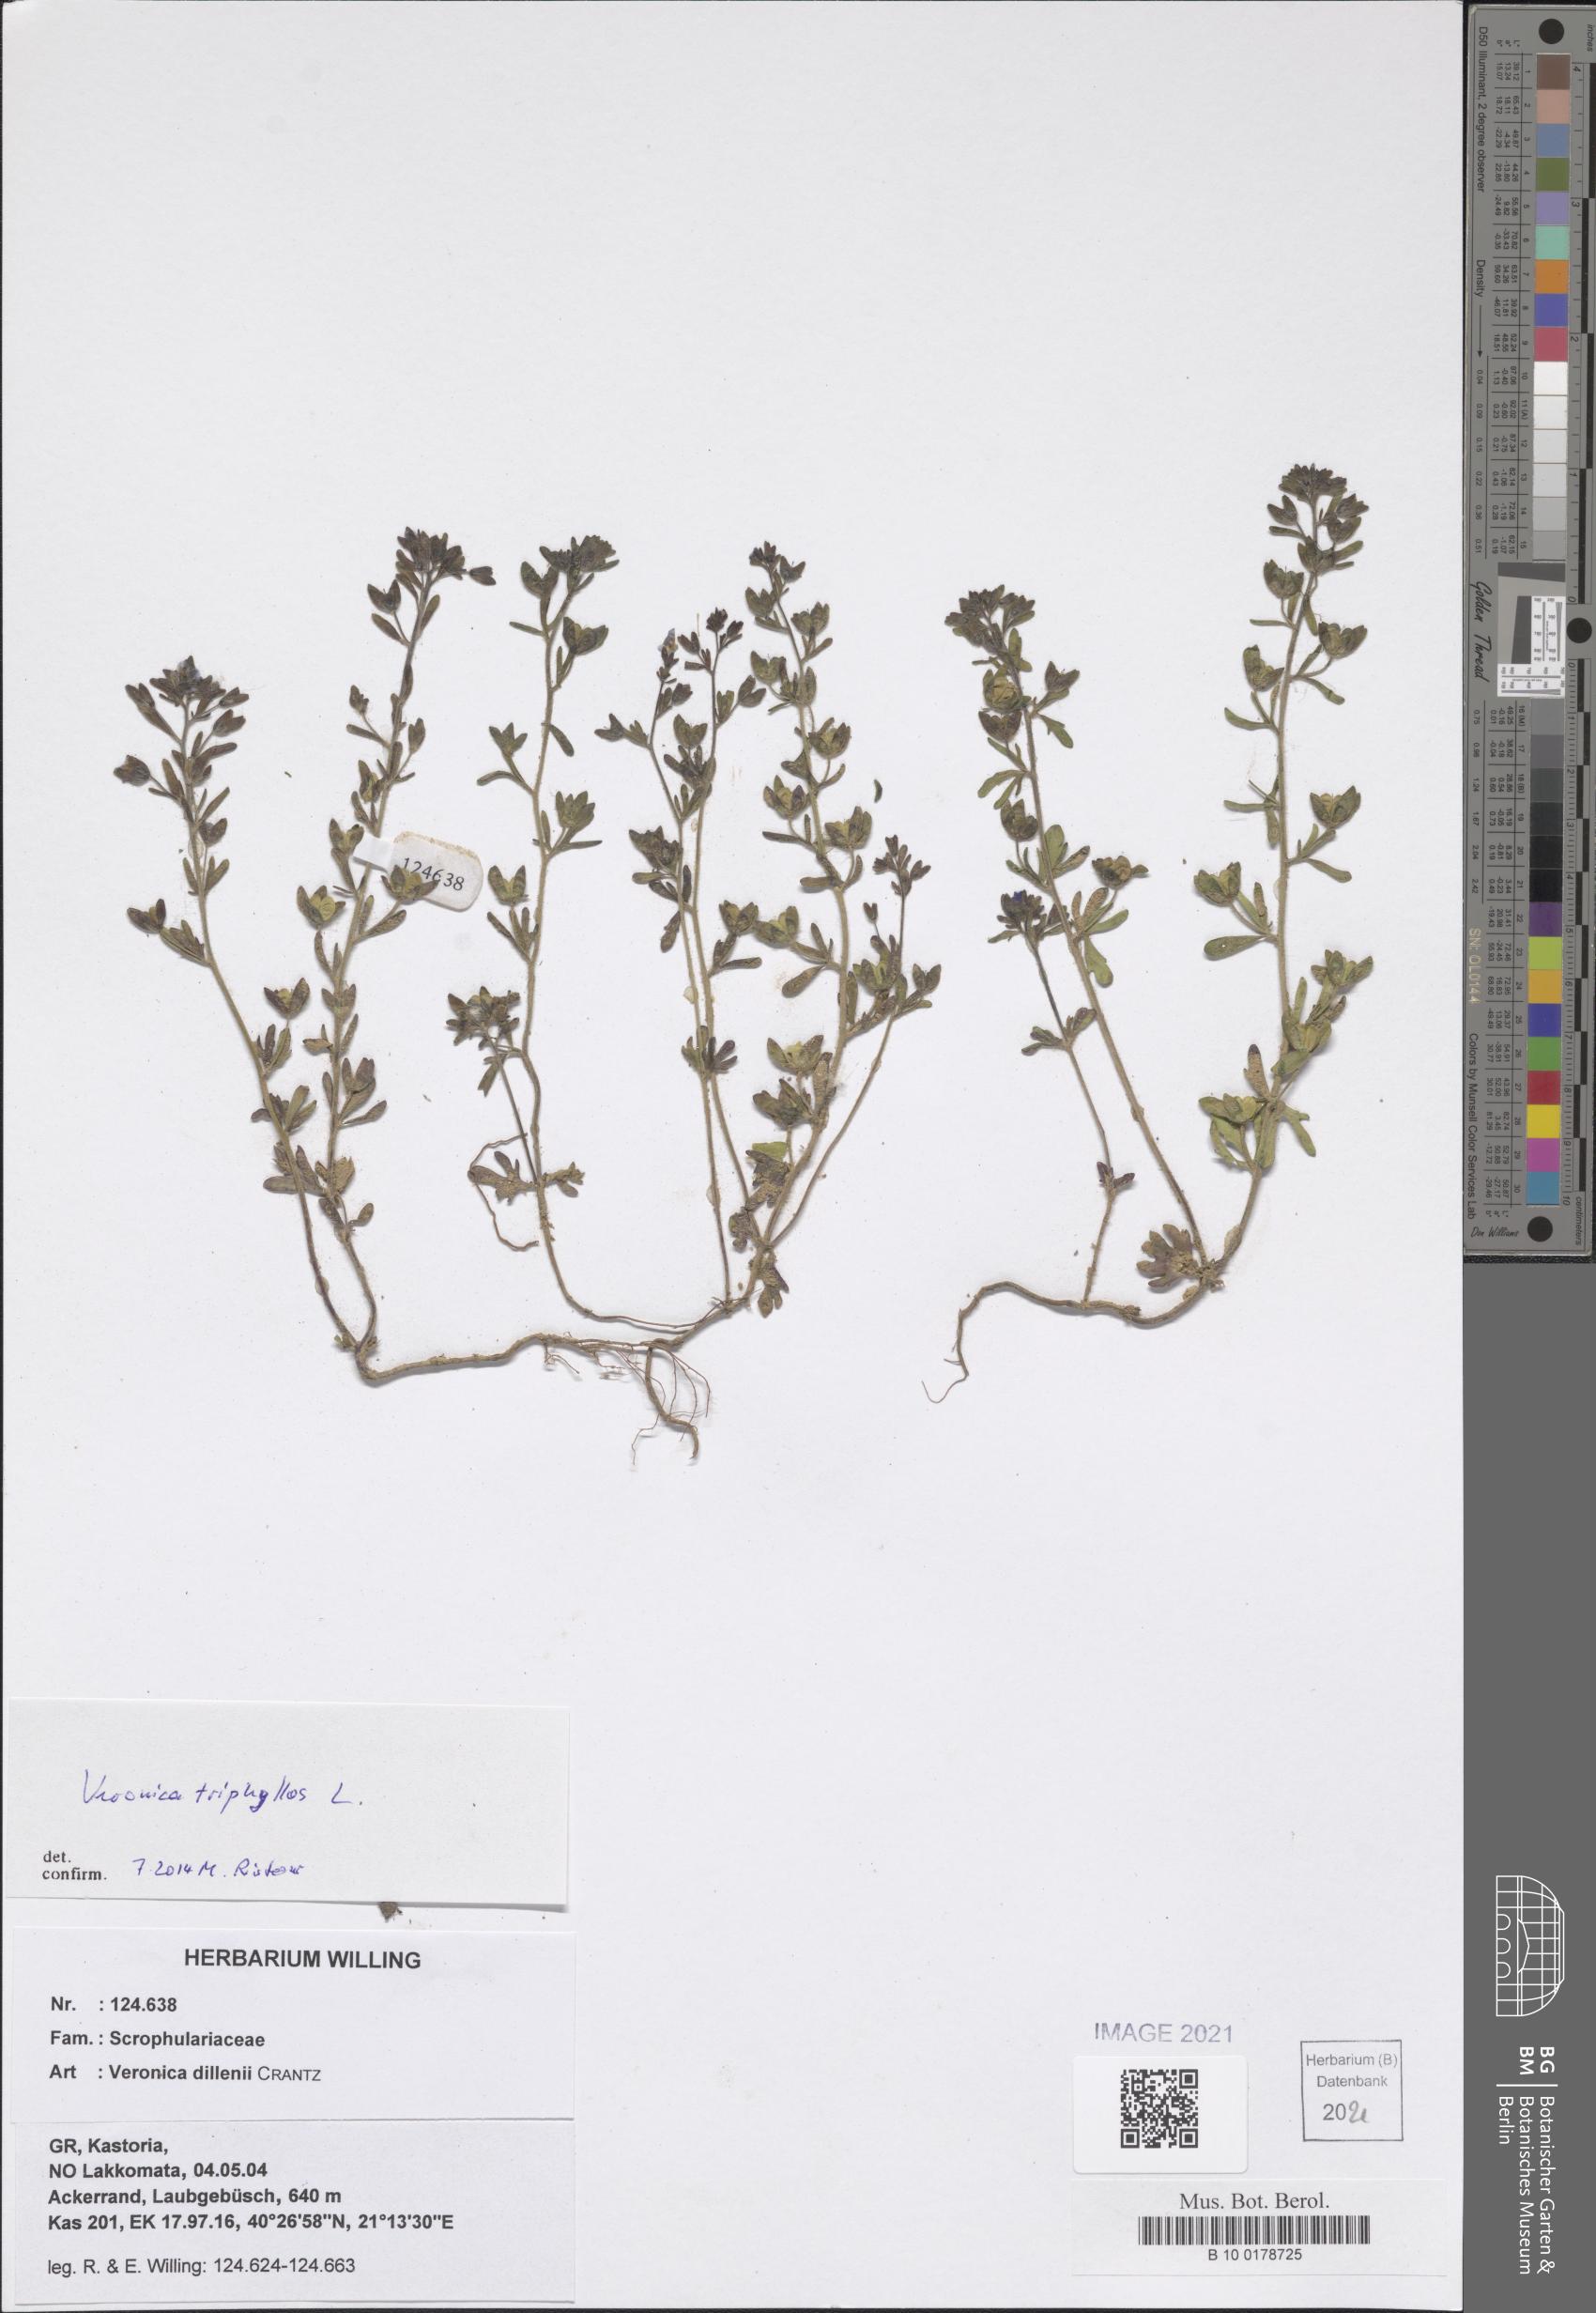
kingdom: Plantae
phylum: Tracheophyta
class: Magnoliopsida
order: Lamiales
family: Plantaginaceae
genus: Veronica
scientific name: Veronica triphyllos
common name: Fingered speedwell
